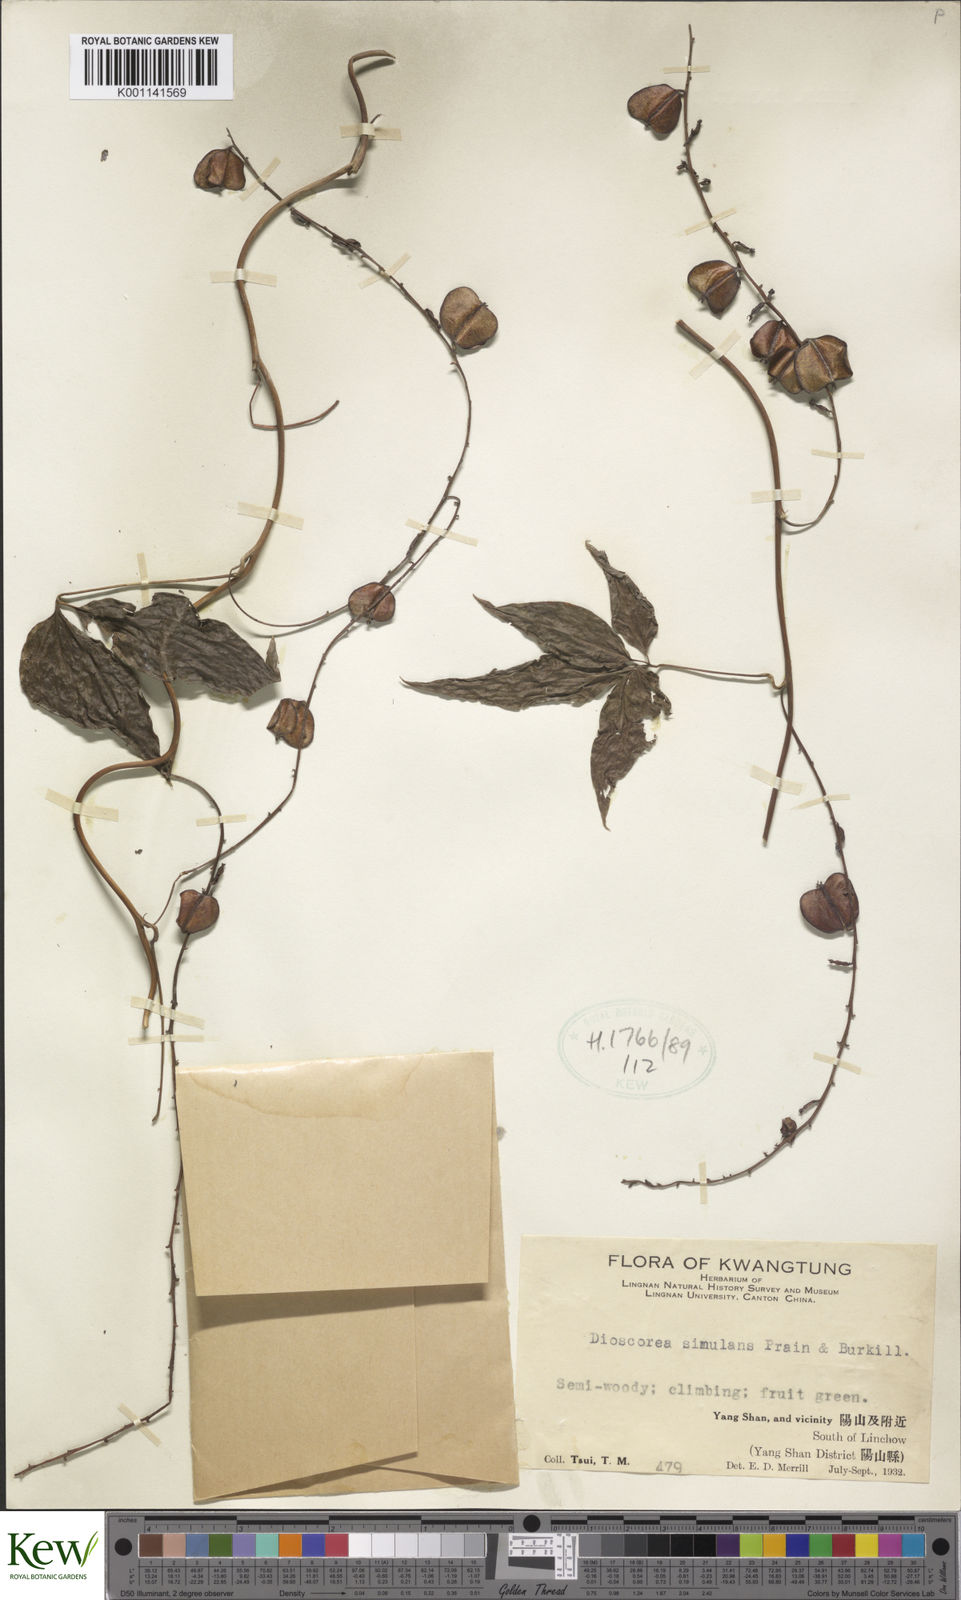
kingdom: Plantae
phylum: Tracheophyta
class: Liliopsida
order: Dioscoreales
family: Dioscoreaceae
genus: Dioscorea
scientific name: Dioscorea simulans
